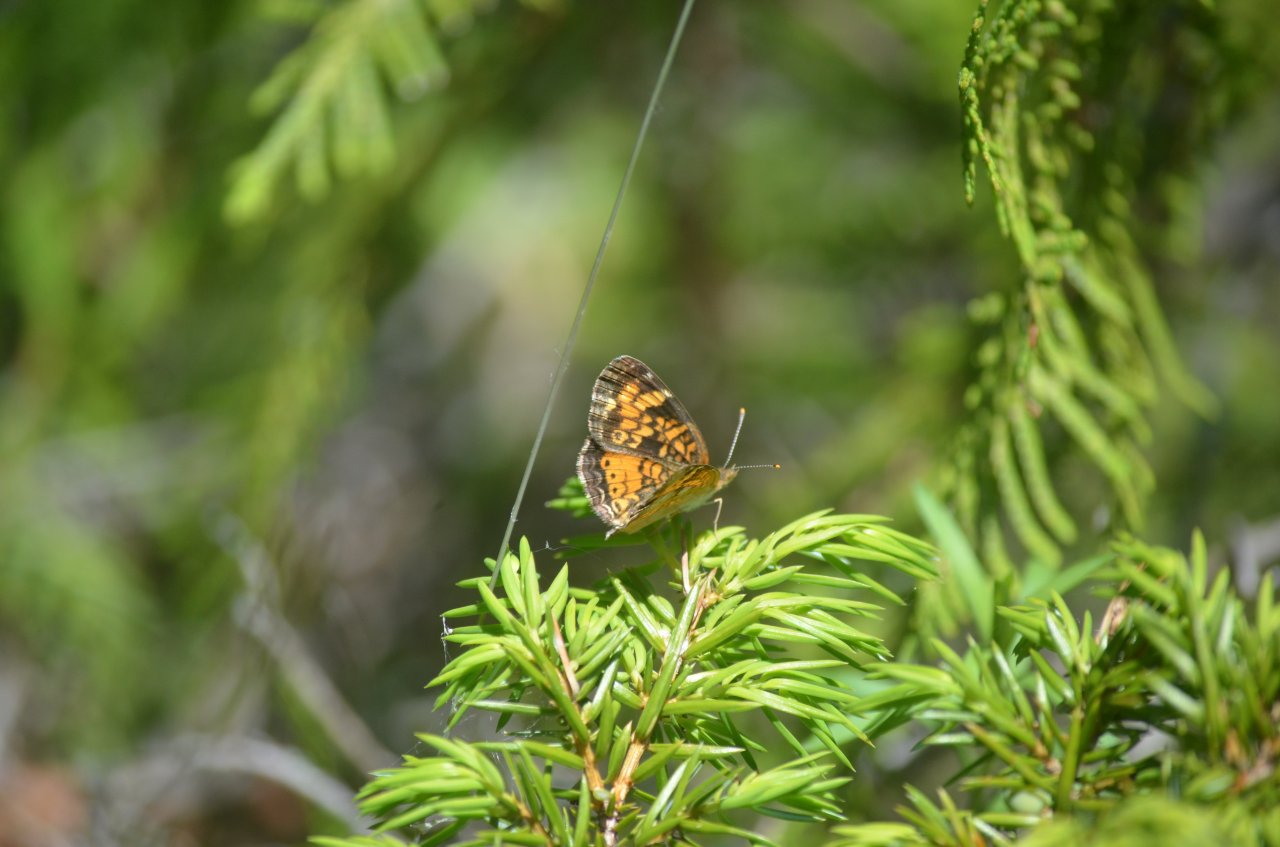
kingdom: Animalia
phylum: Arthropoda
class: Insecta
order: Lepidoptera
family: Nymphalidae
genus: Phyciodes
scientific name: Phyciodes tharos
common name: Northern Crescent
